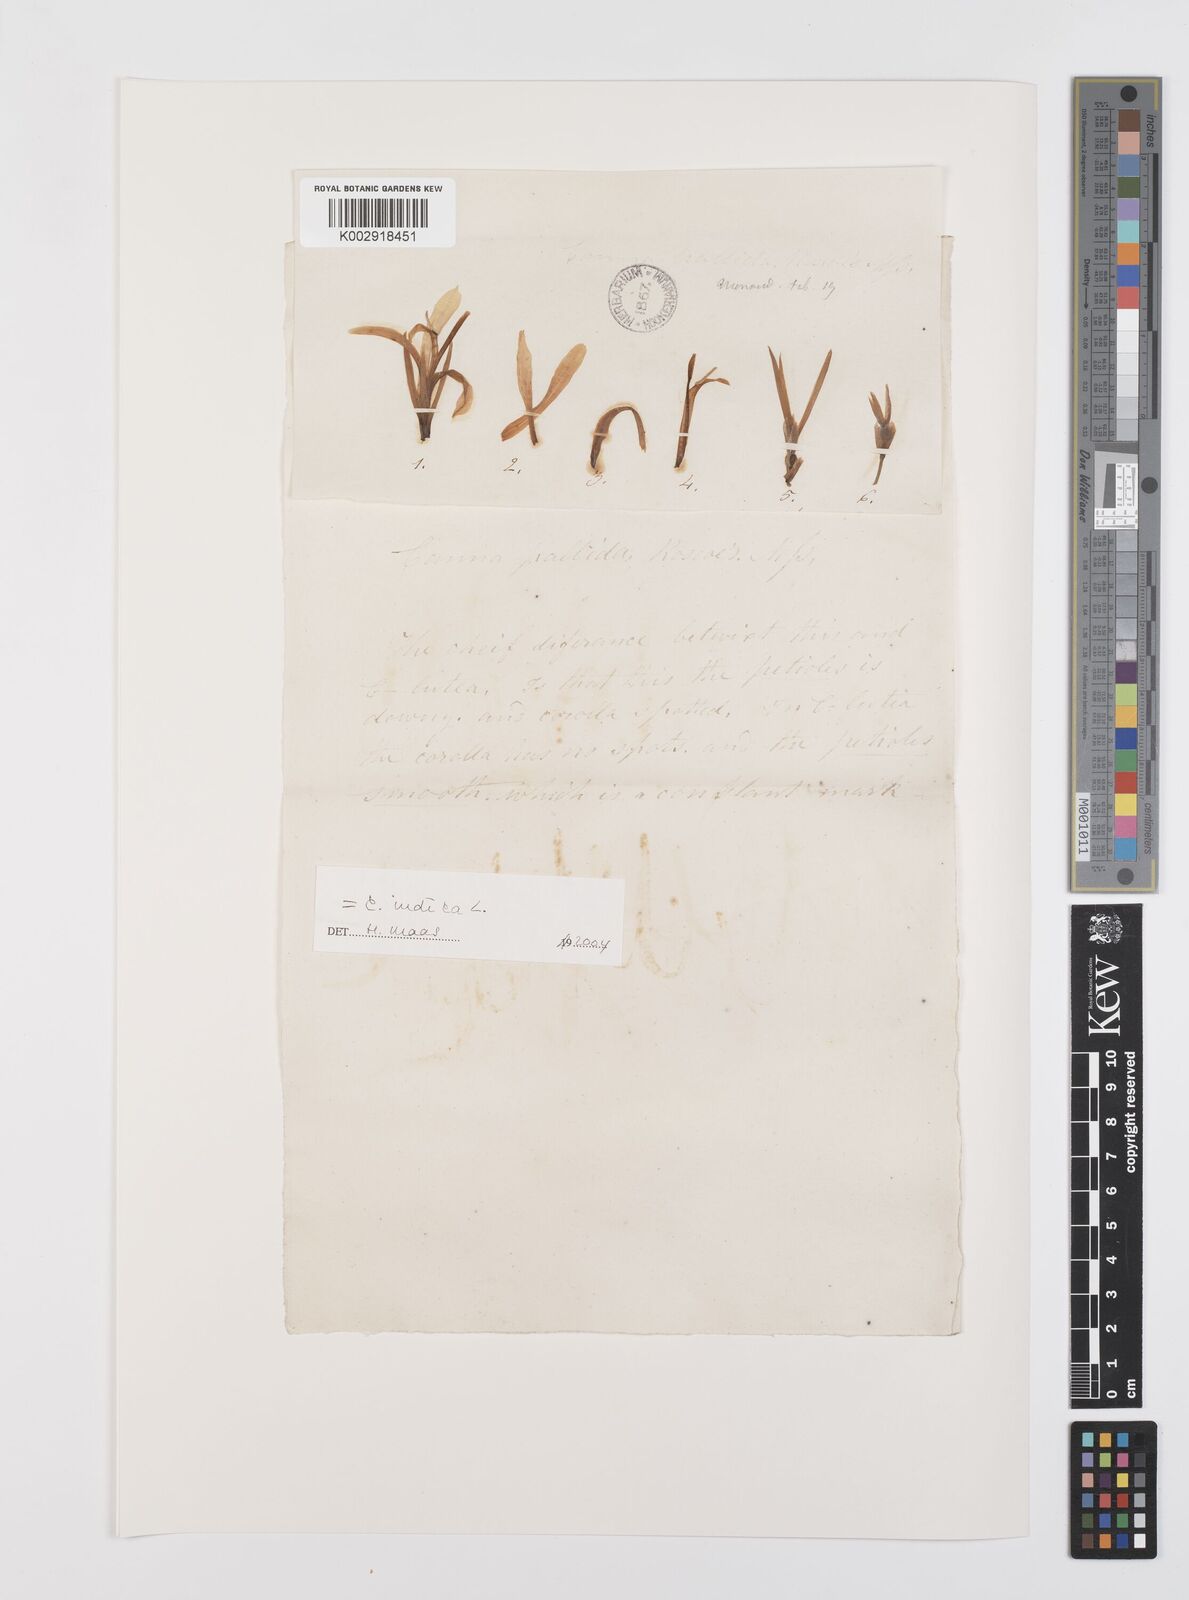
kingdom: Plantae
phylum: Tracheophyta
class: Liliopsida
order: Zingiberales
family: Cannaceae
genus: Canna
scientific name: Canna indica
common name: Indian shot
